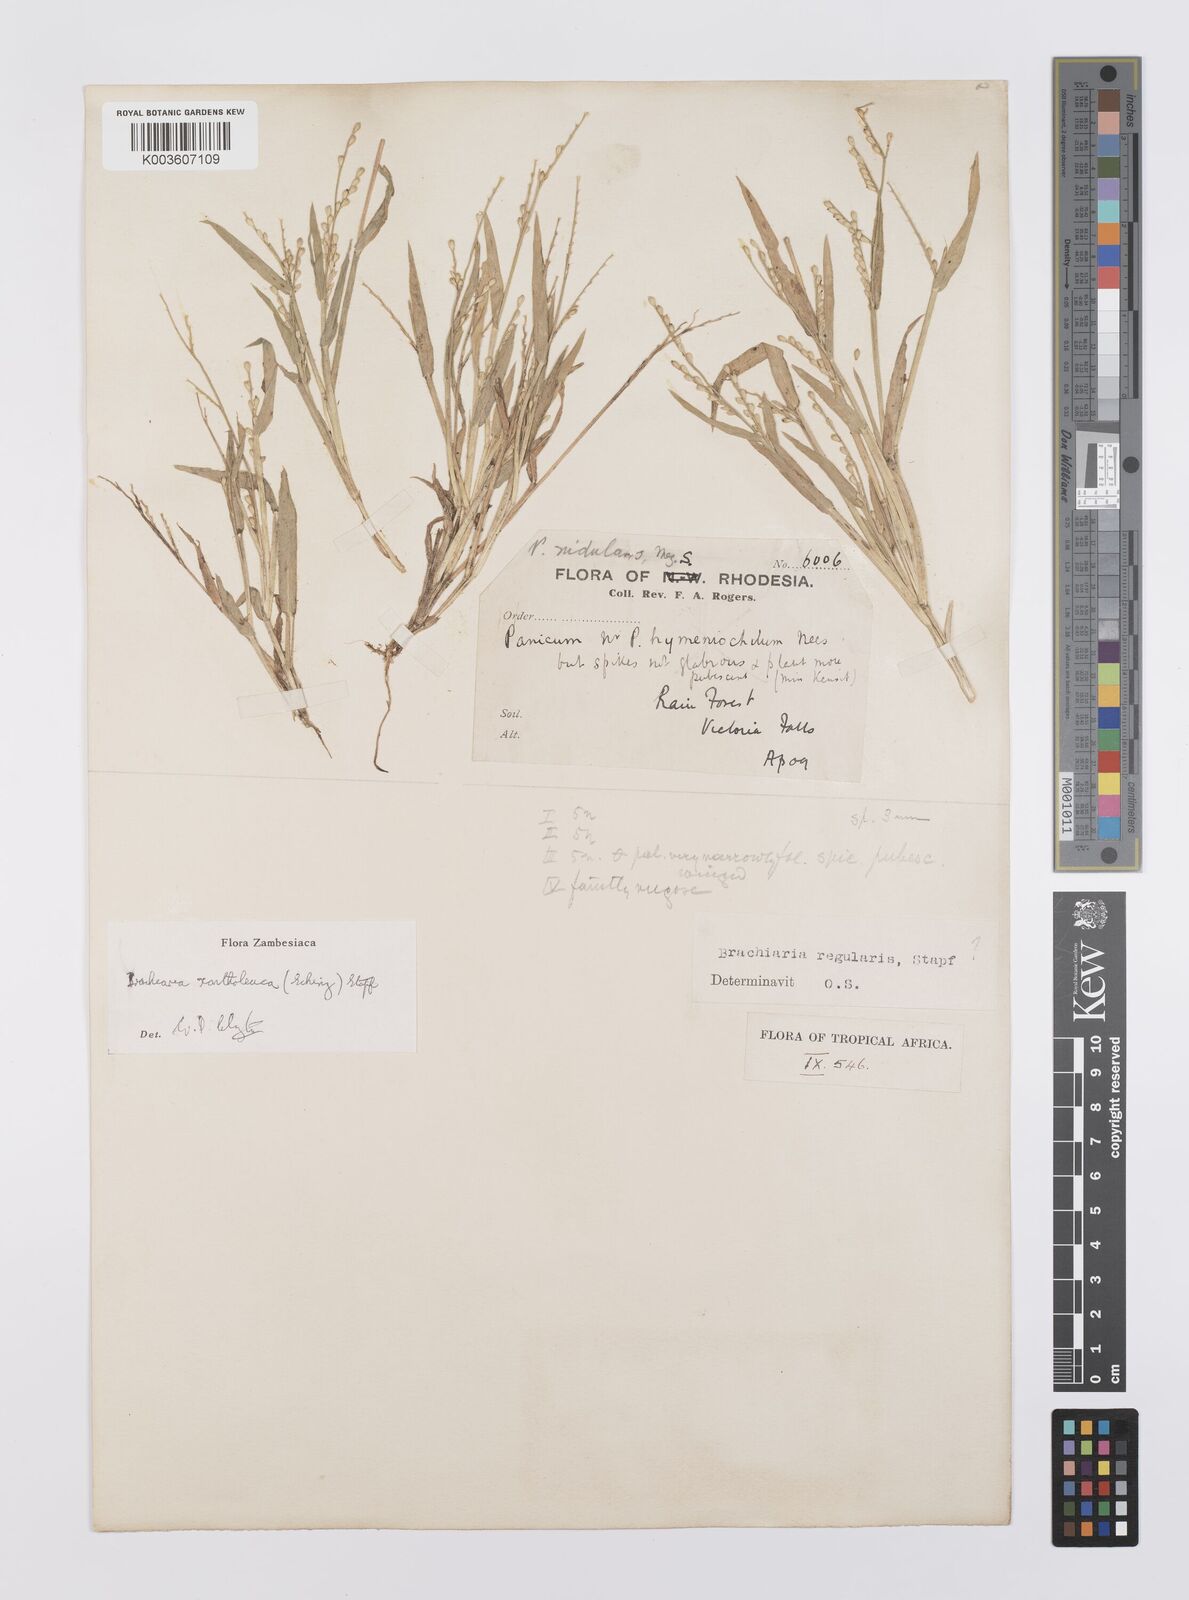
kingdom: Plantae
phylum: Tracheophyta
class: Liliopsida
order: Poales
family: Poaceae
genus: Urochloa
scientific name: Urochloa xantholeuca
